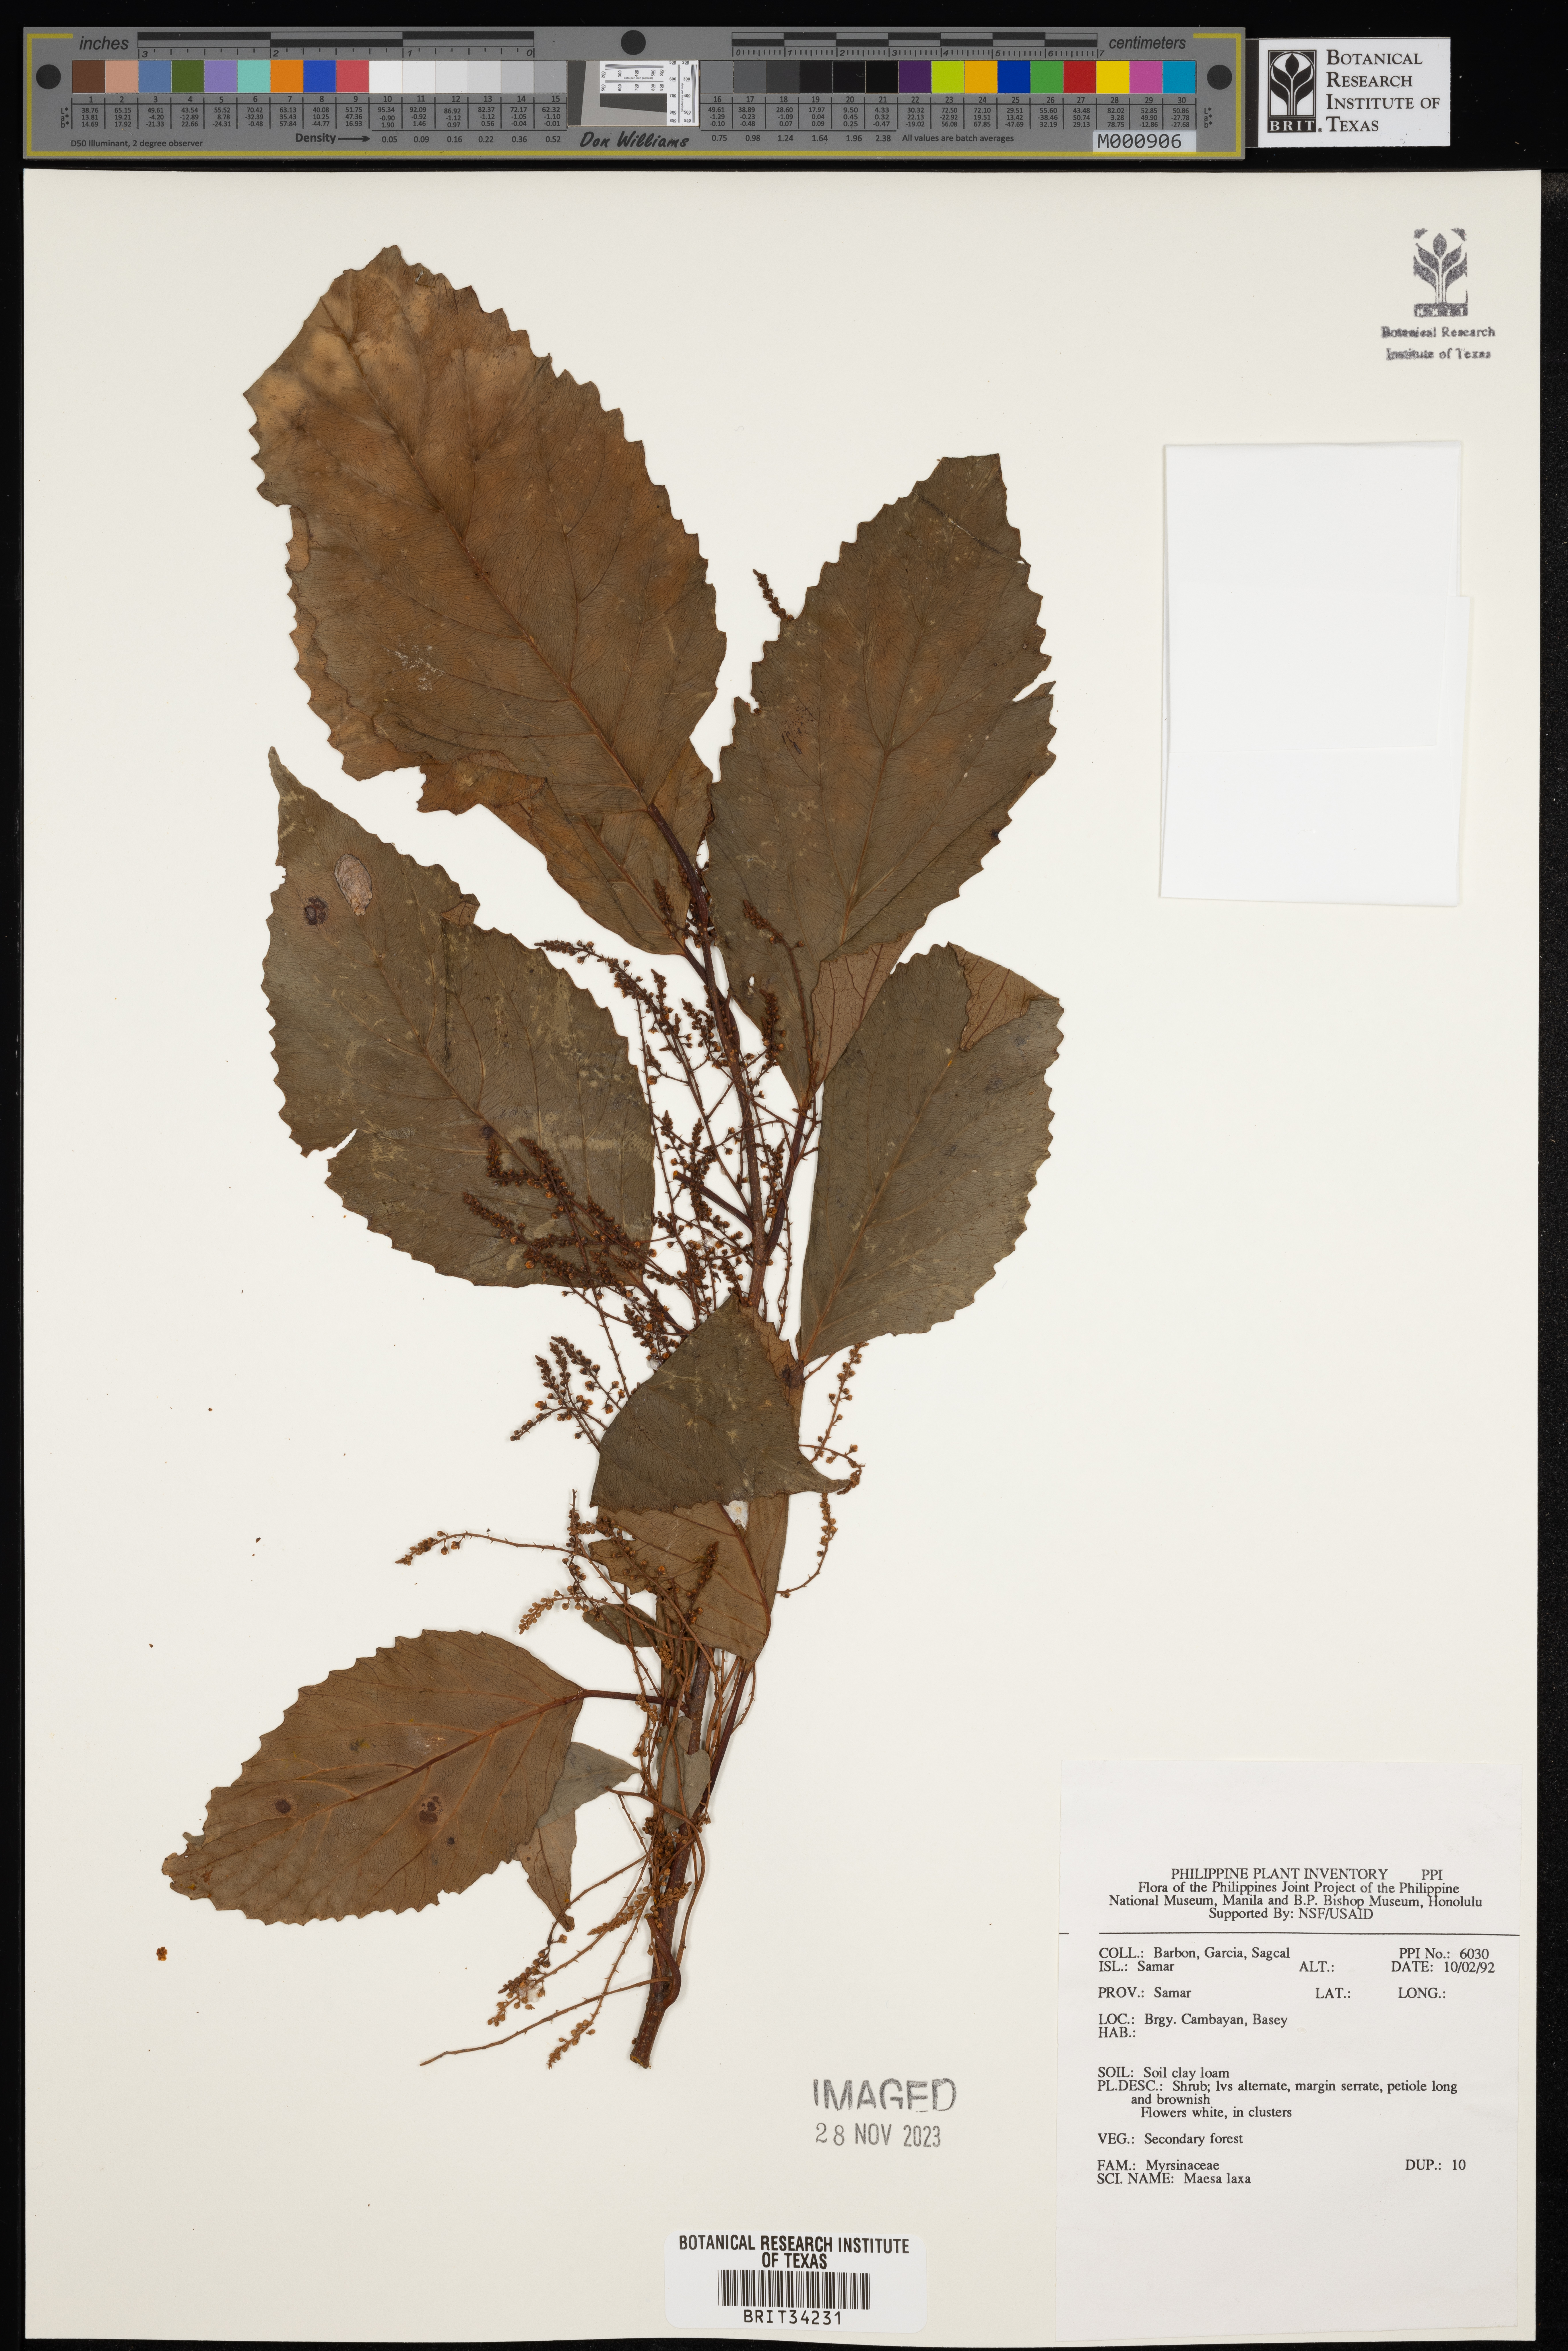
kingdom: Plantae
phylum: Tracheophyta
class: Magnoliopsida
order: Ericales
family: Primulaceae
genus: Maesa
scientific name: Maesa indica
